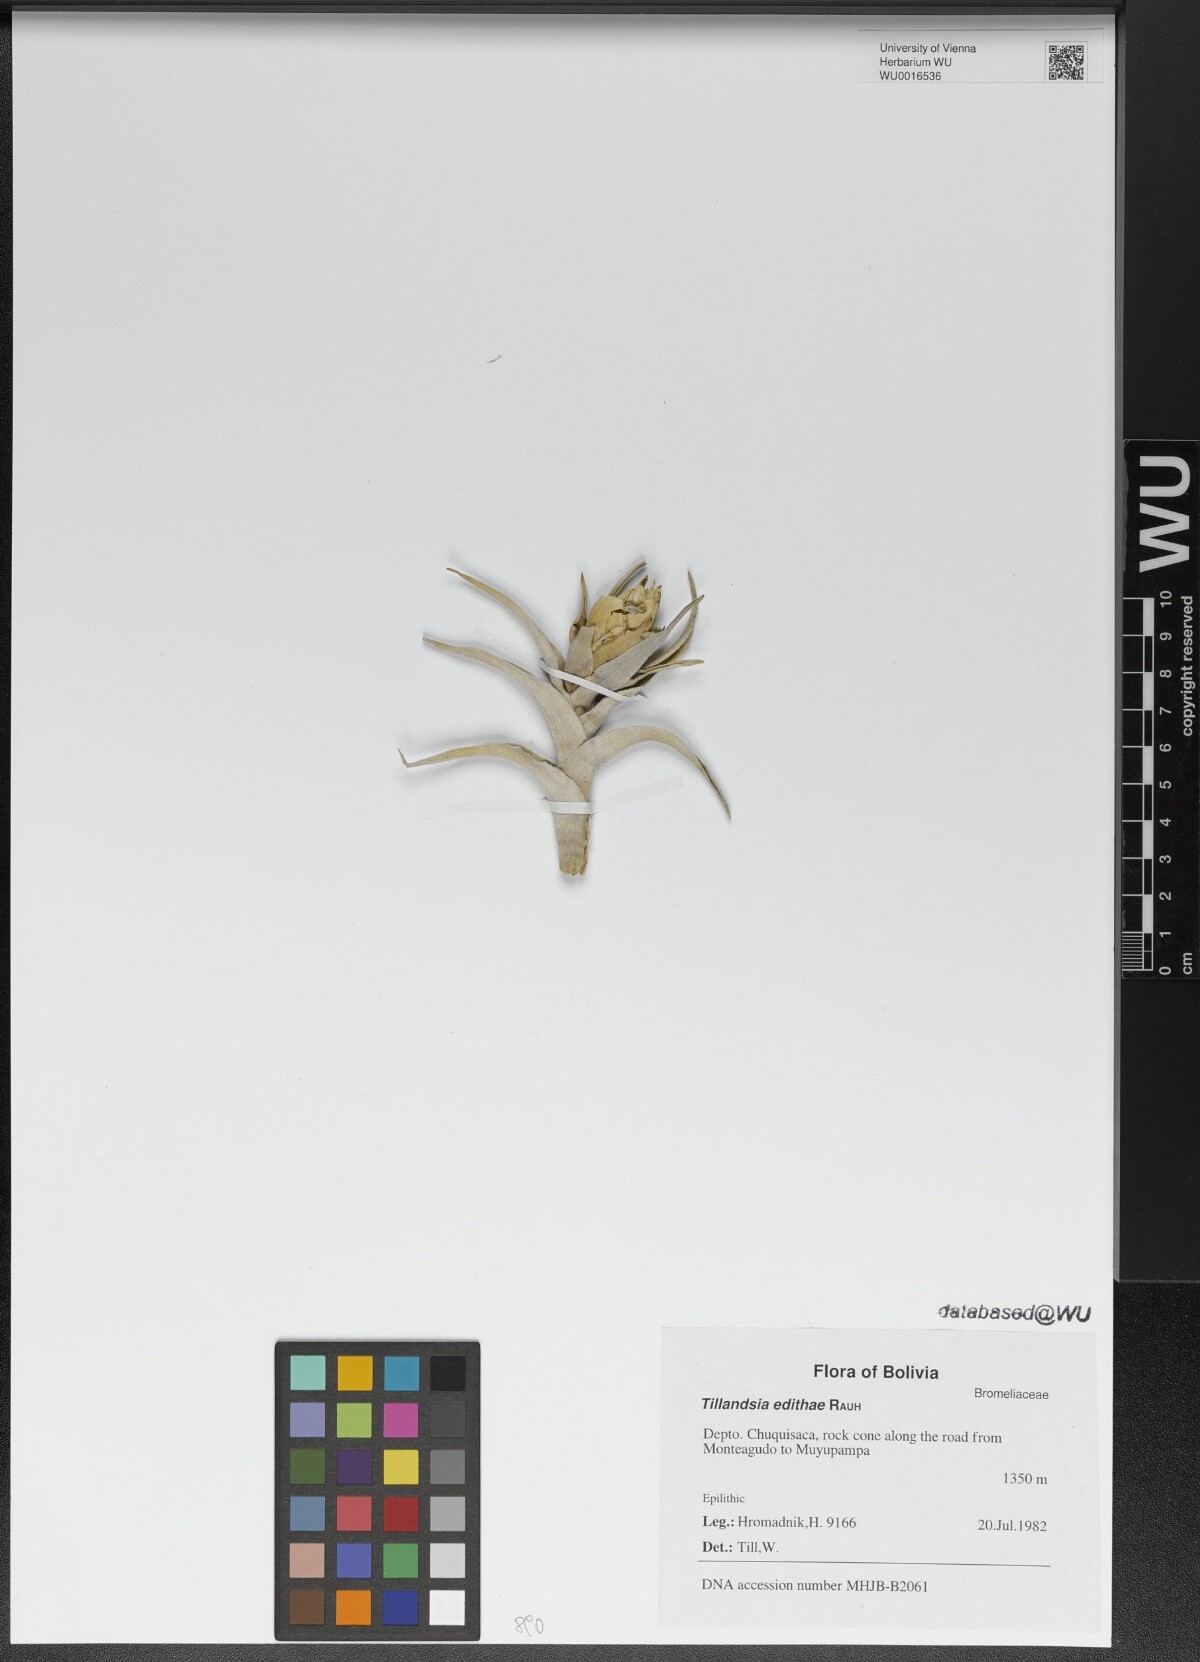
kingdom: Plantae
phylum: Tracheophyta
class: Liliopsida
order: Poales
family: Bromeliaceae
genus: Tillandsia
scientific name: Tillandsia edithae
